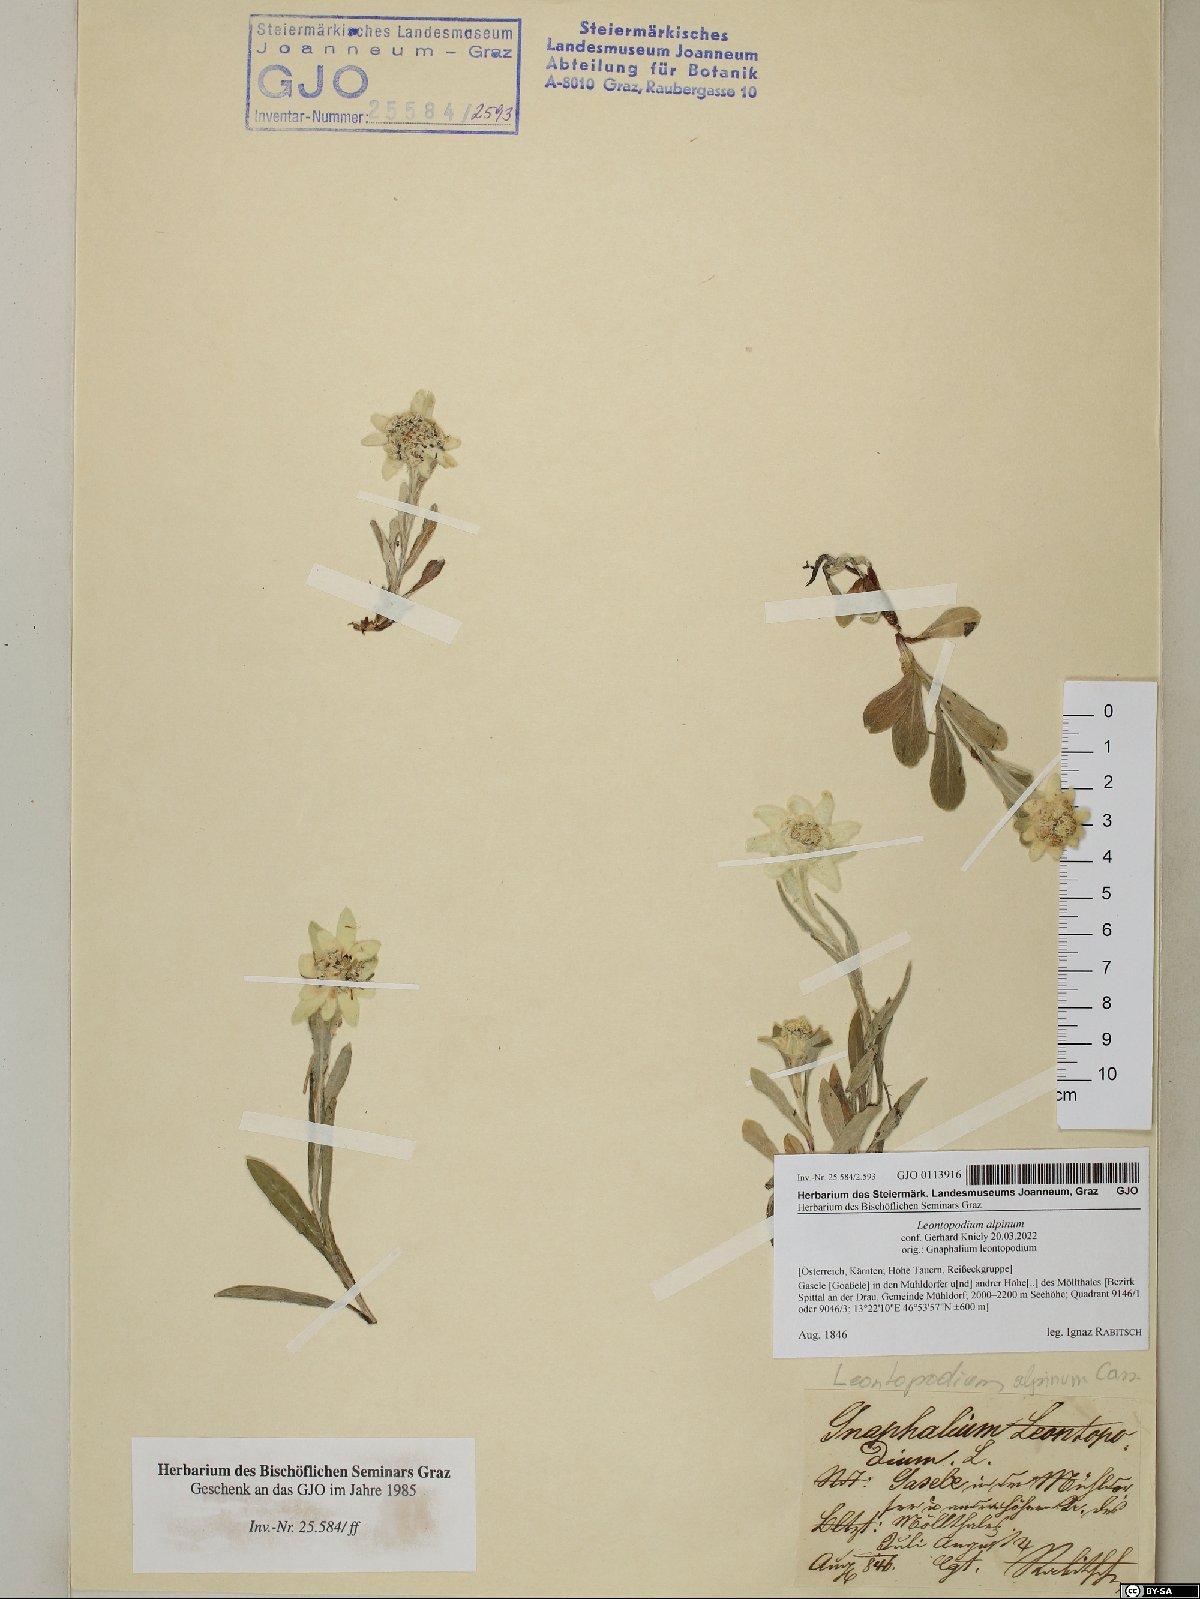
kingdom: Plantae
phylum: Tracheophyta
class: Magnoliopsida
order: Asterales
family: Asteraceae
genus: Leontopodium
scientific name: Leontopodium nivale
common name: Edelweiss
